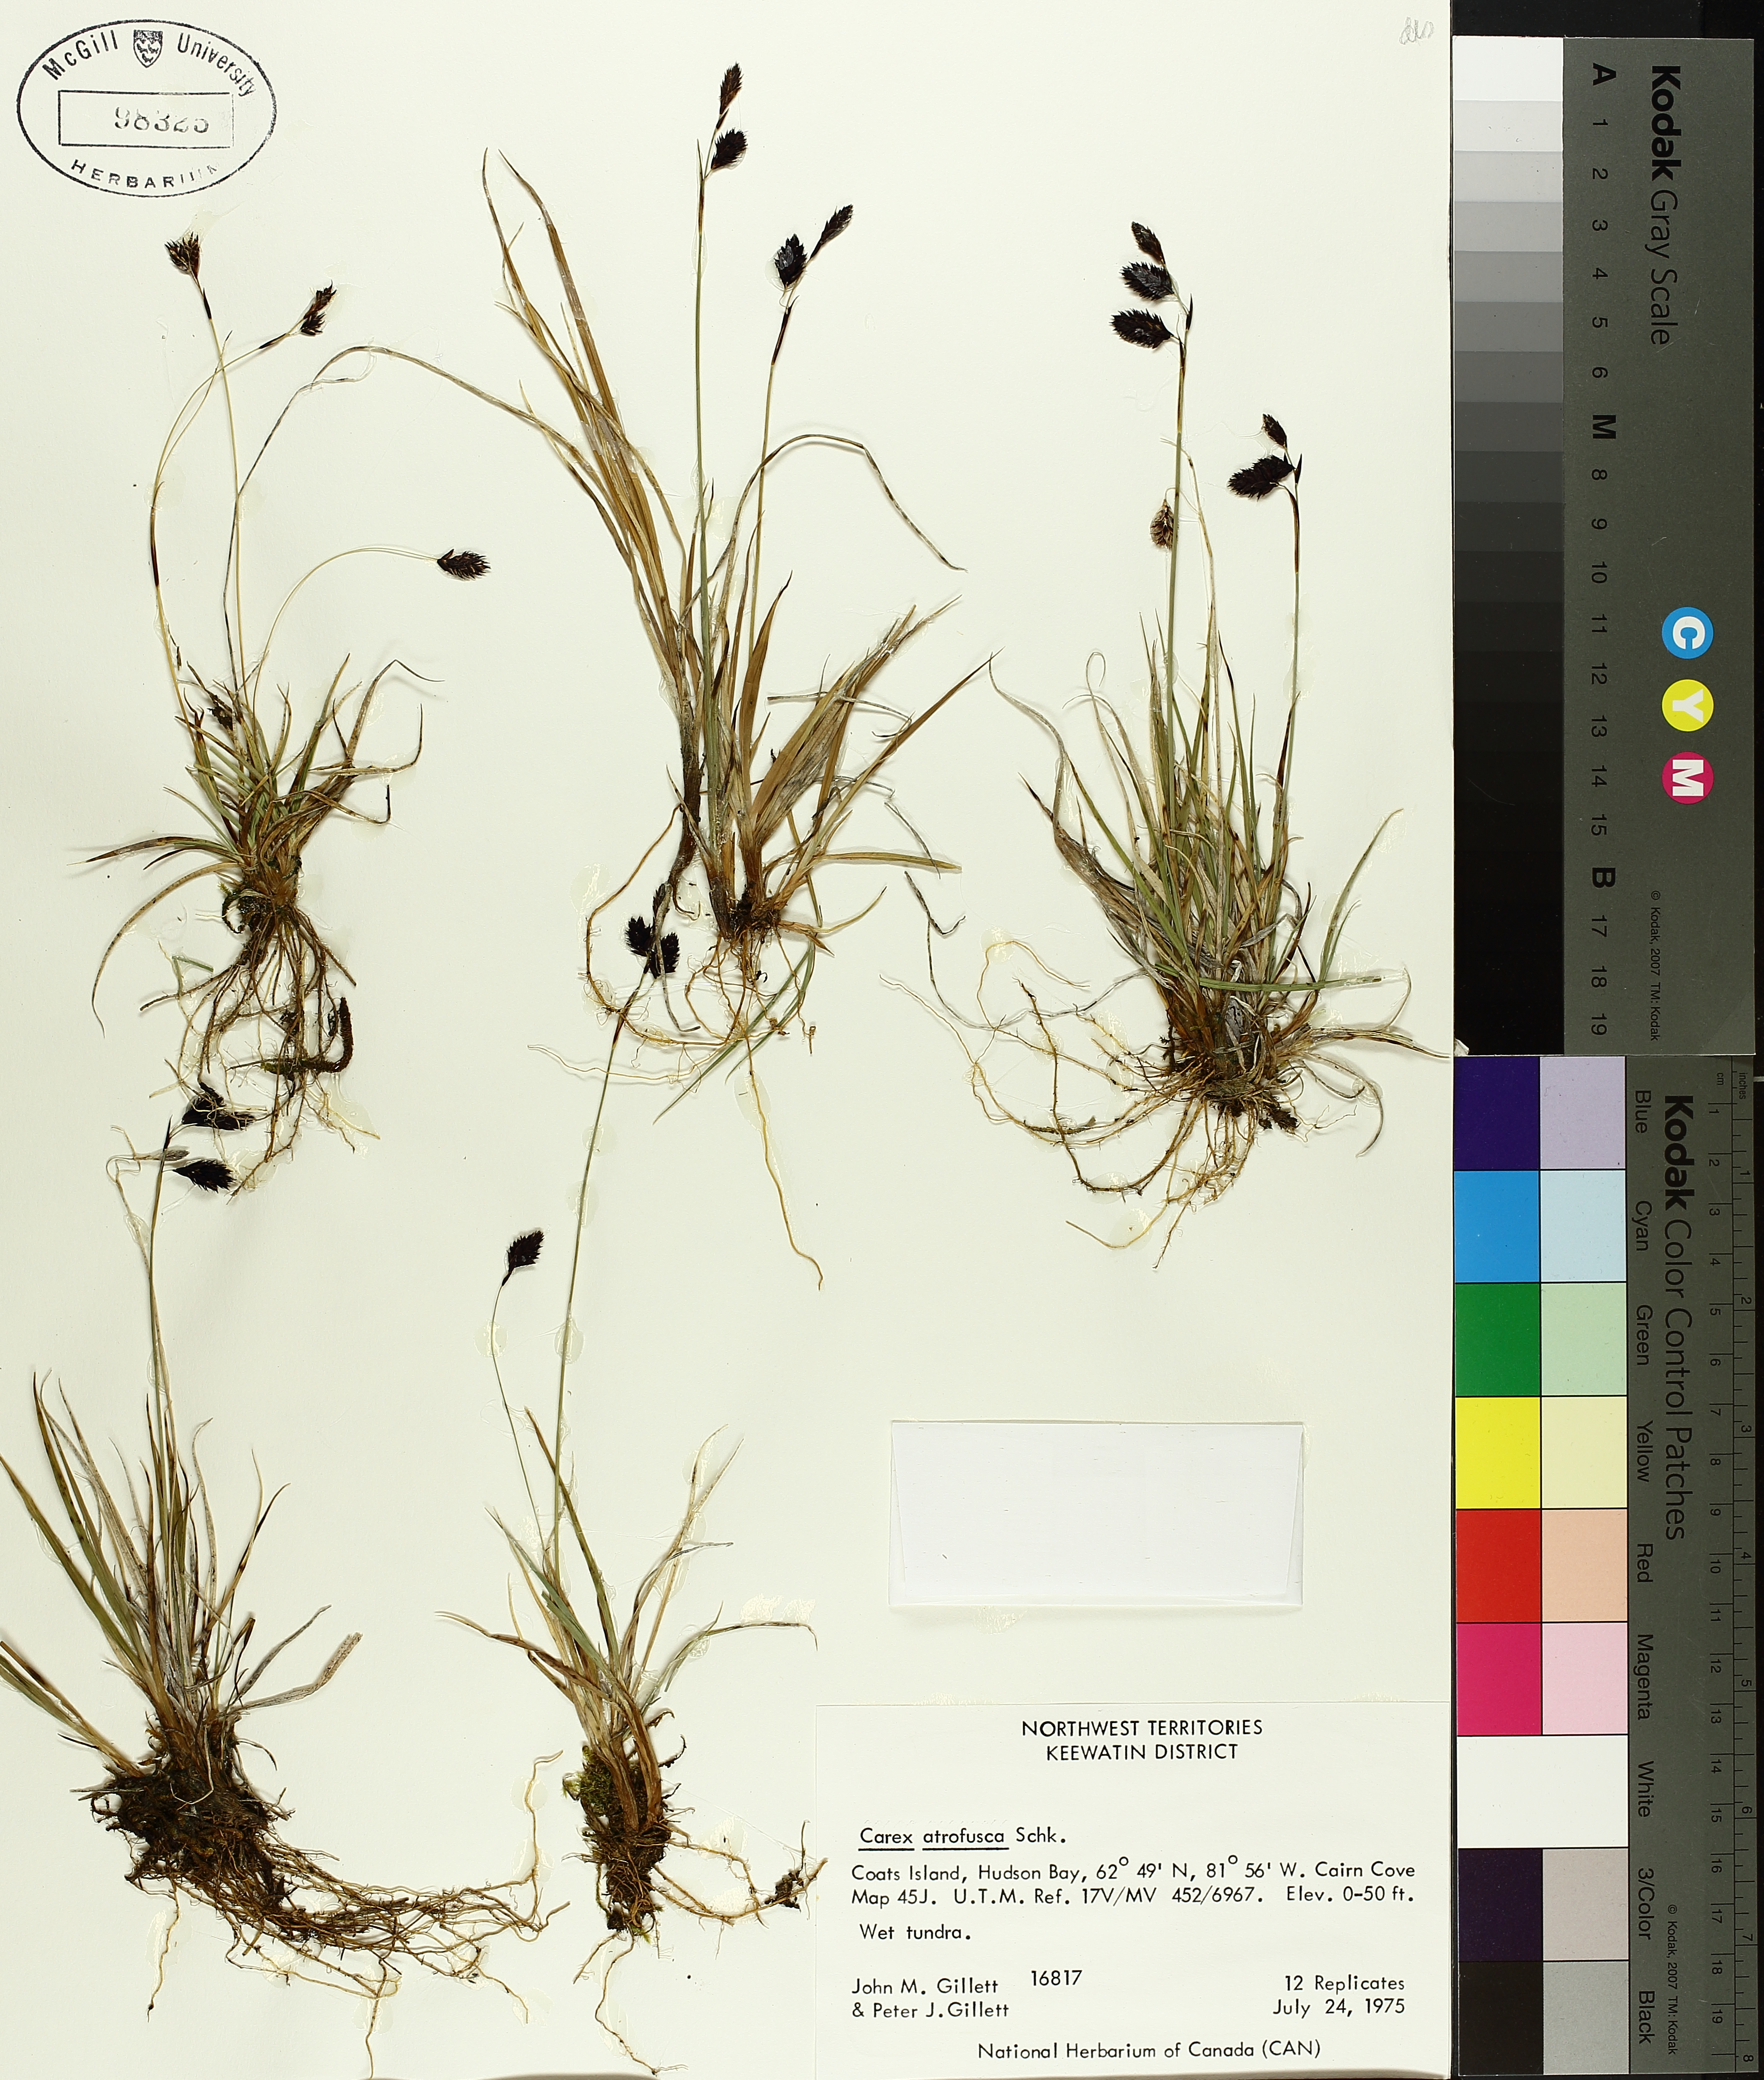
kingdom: Plantae
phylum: Tracheophyta
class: Liliopsida
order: Poales
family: Cyperaceae
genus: Carex
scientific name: Carex atrofusca
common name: Scorched alpine-sedge
